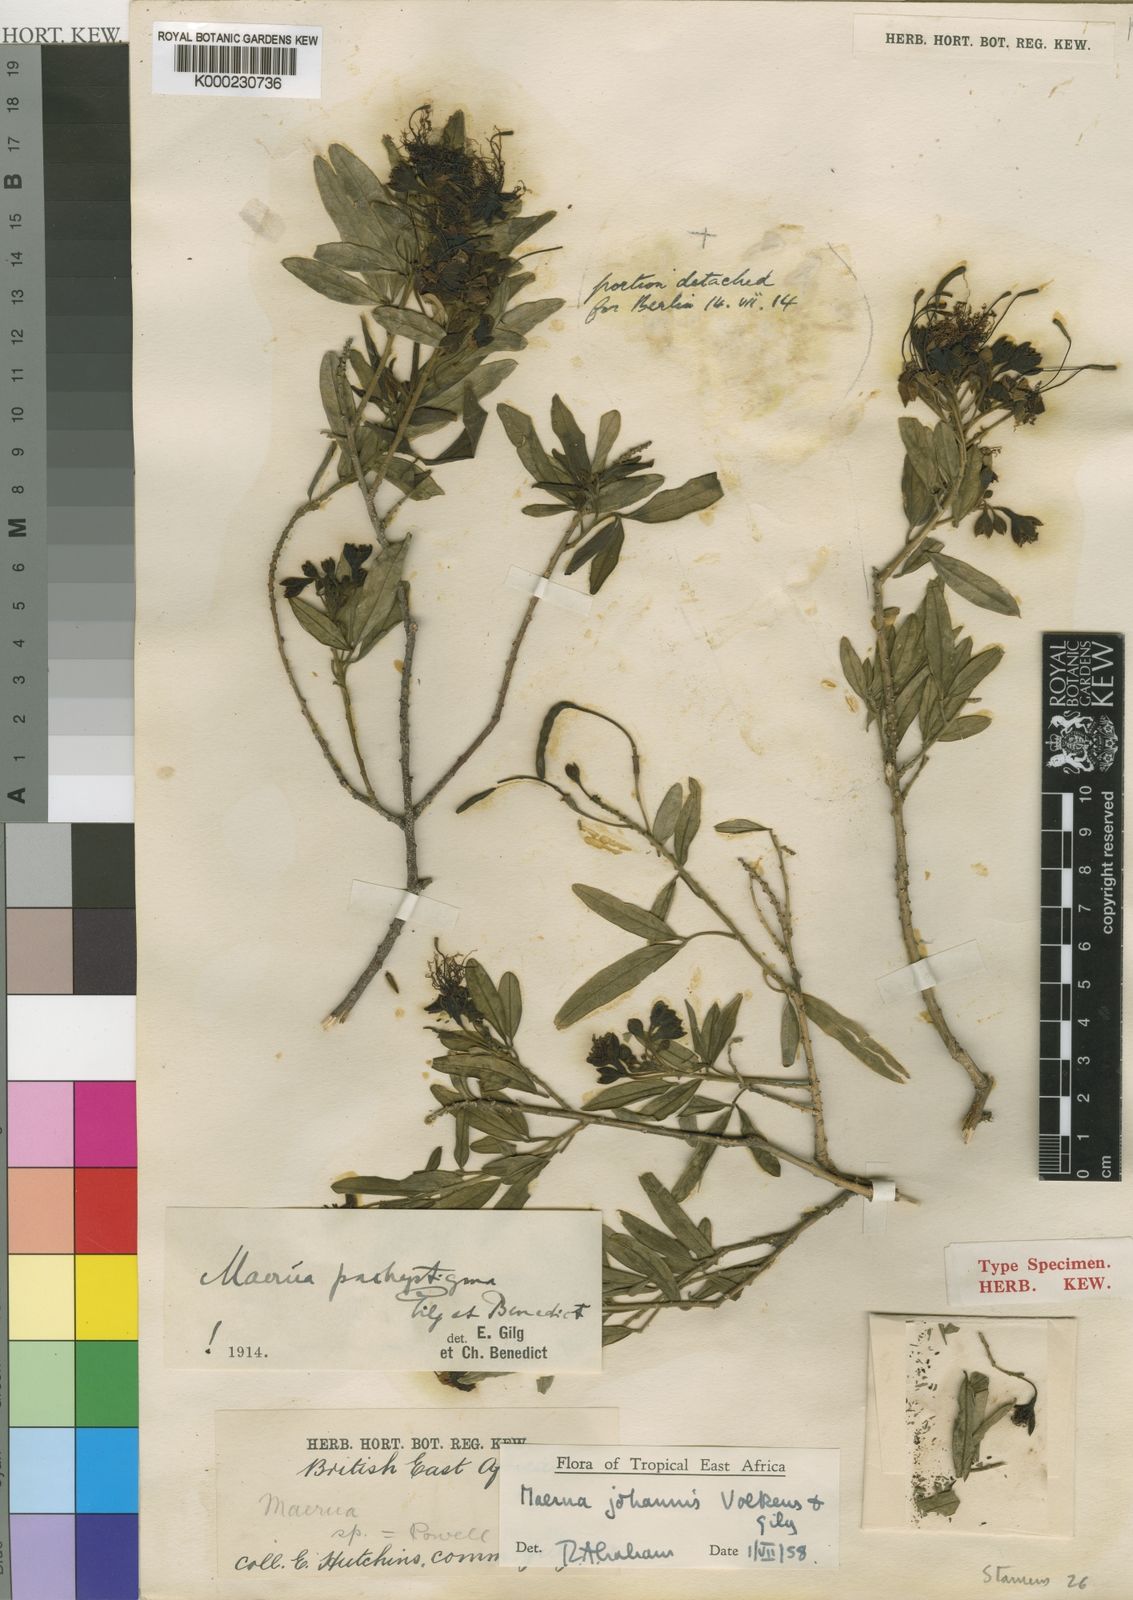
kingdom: Plantae
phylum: Tracheophyta
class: Magnoliopsida
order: Brassicales
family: Capparaceae
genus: Maerua
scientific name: Maerua
